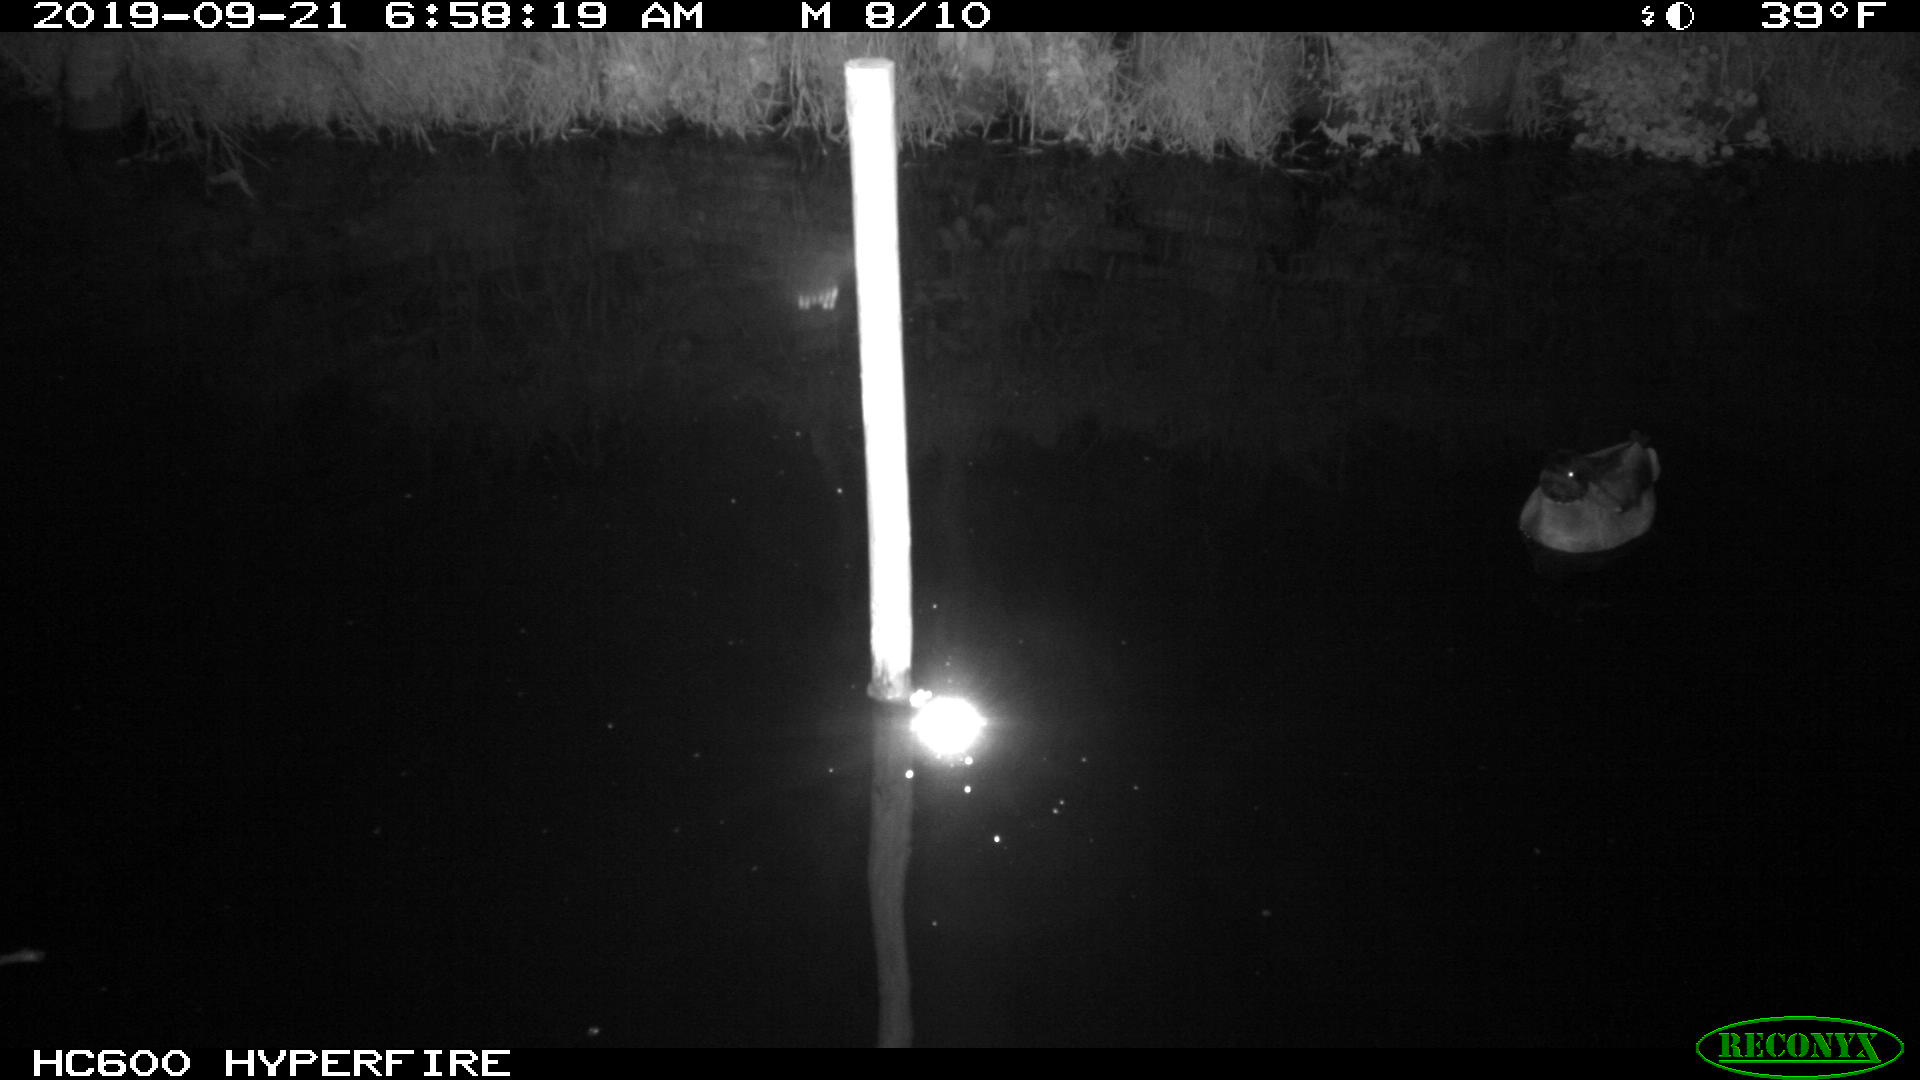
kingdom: Animalia
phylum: Chordata
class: Aves
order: Anseriformes
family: Anatidae
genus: Anas
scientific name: Anas platyrhynchos
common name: Mallard
